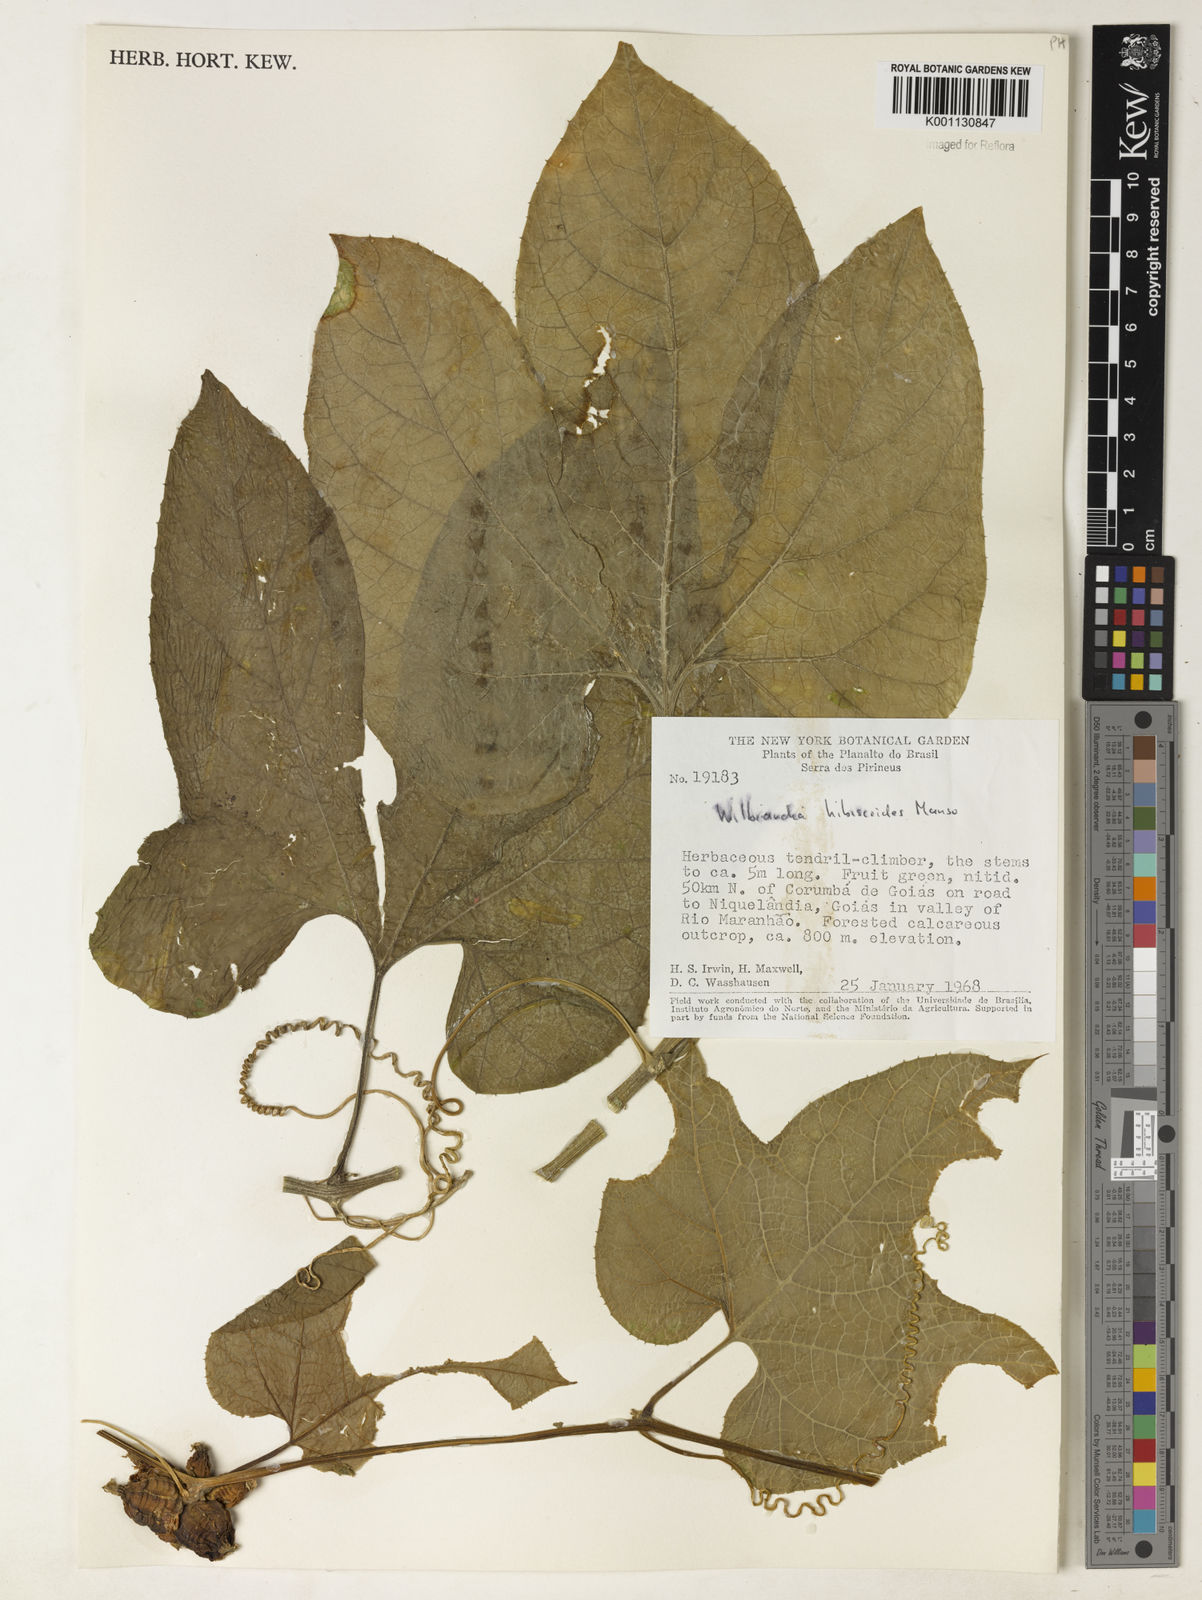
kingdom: Plantae
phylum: Tracheophyta
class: Magnoliopsida
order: Cucurbitales
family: Cucurbitaceae
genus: Wilbrandia
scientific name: Wilbrandia hibiscoides
